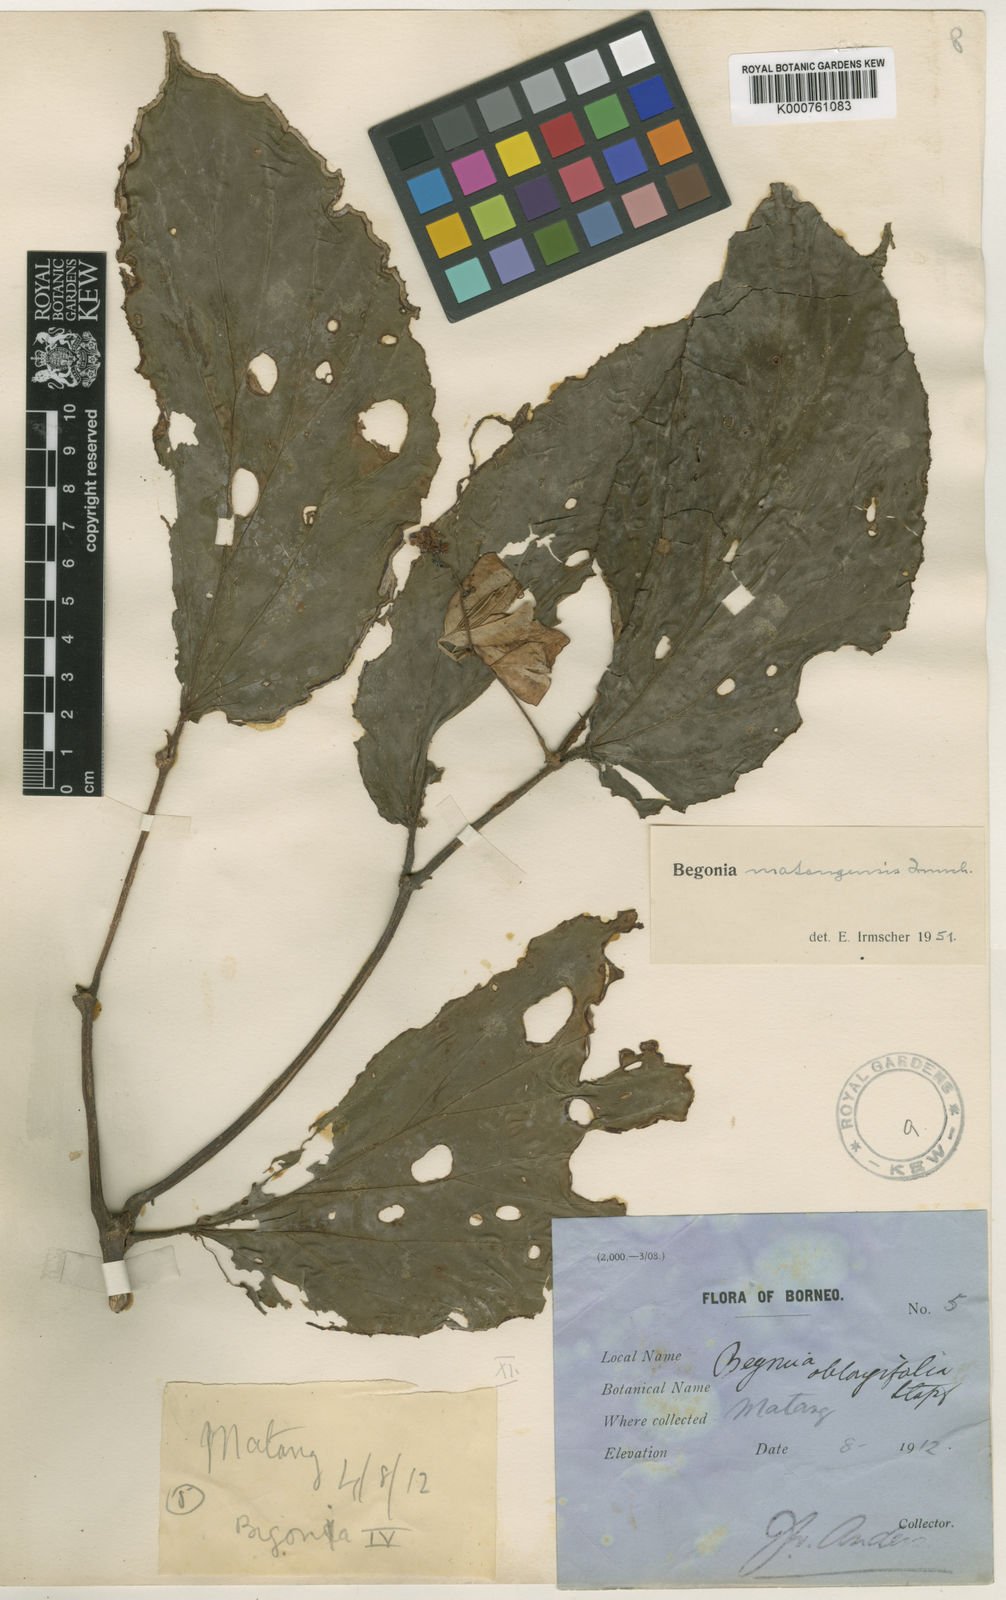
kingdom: Plantae
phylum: Tracheophyta
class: Magnoliopsida
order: Cucurbitales
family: Begoniaceae
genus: Begonia
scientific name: Begonia
